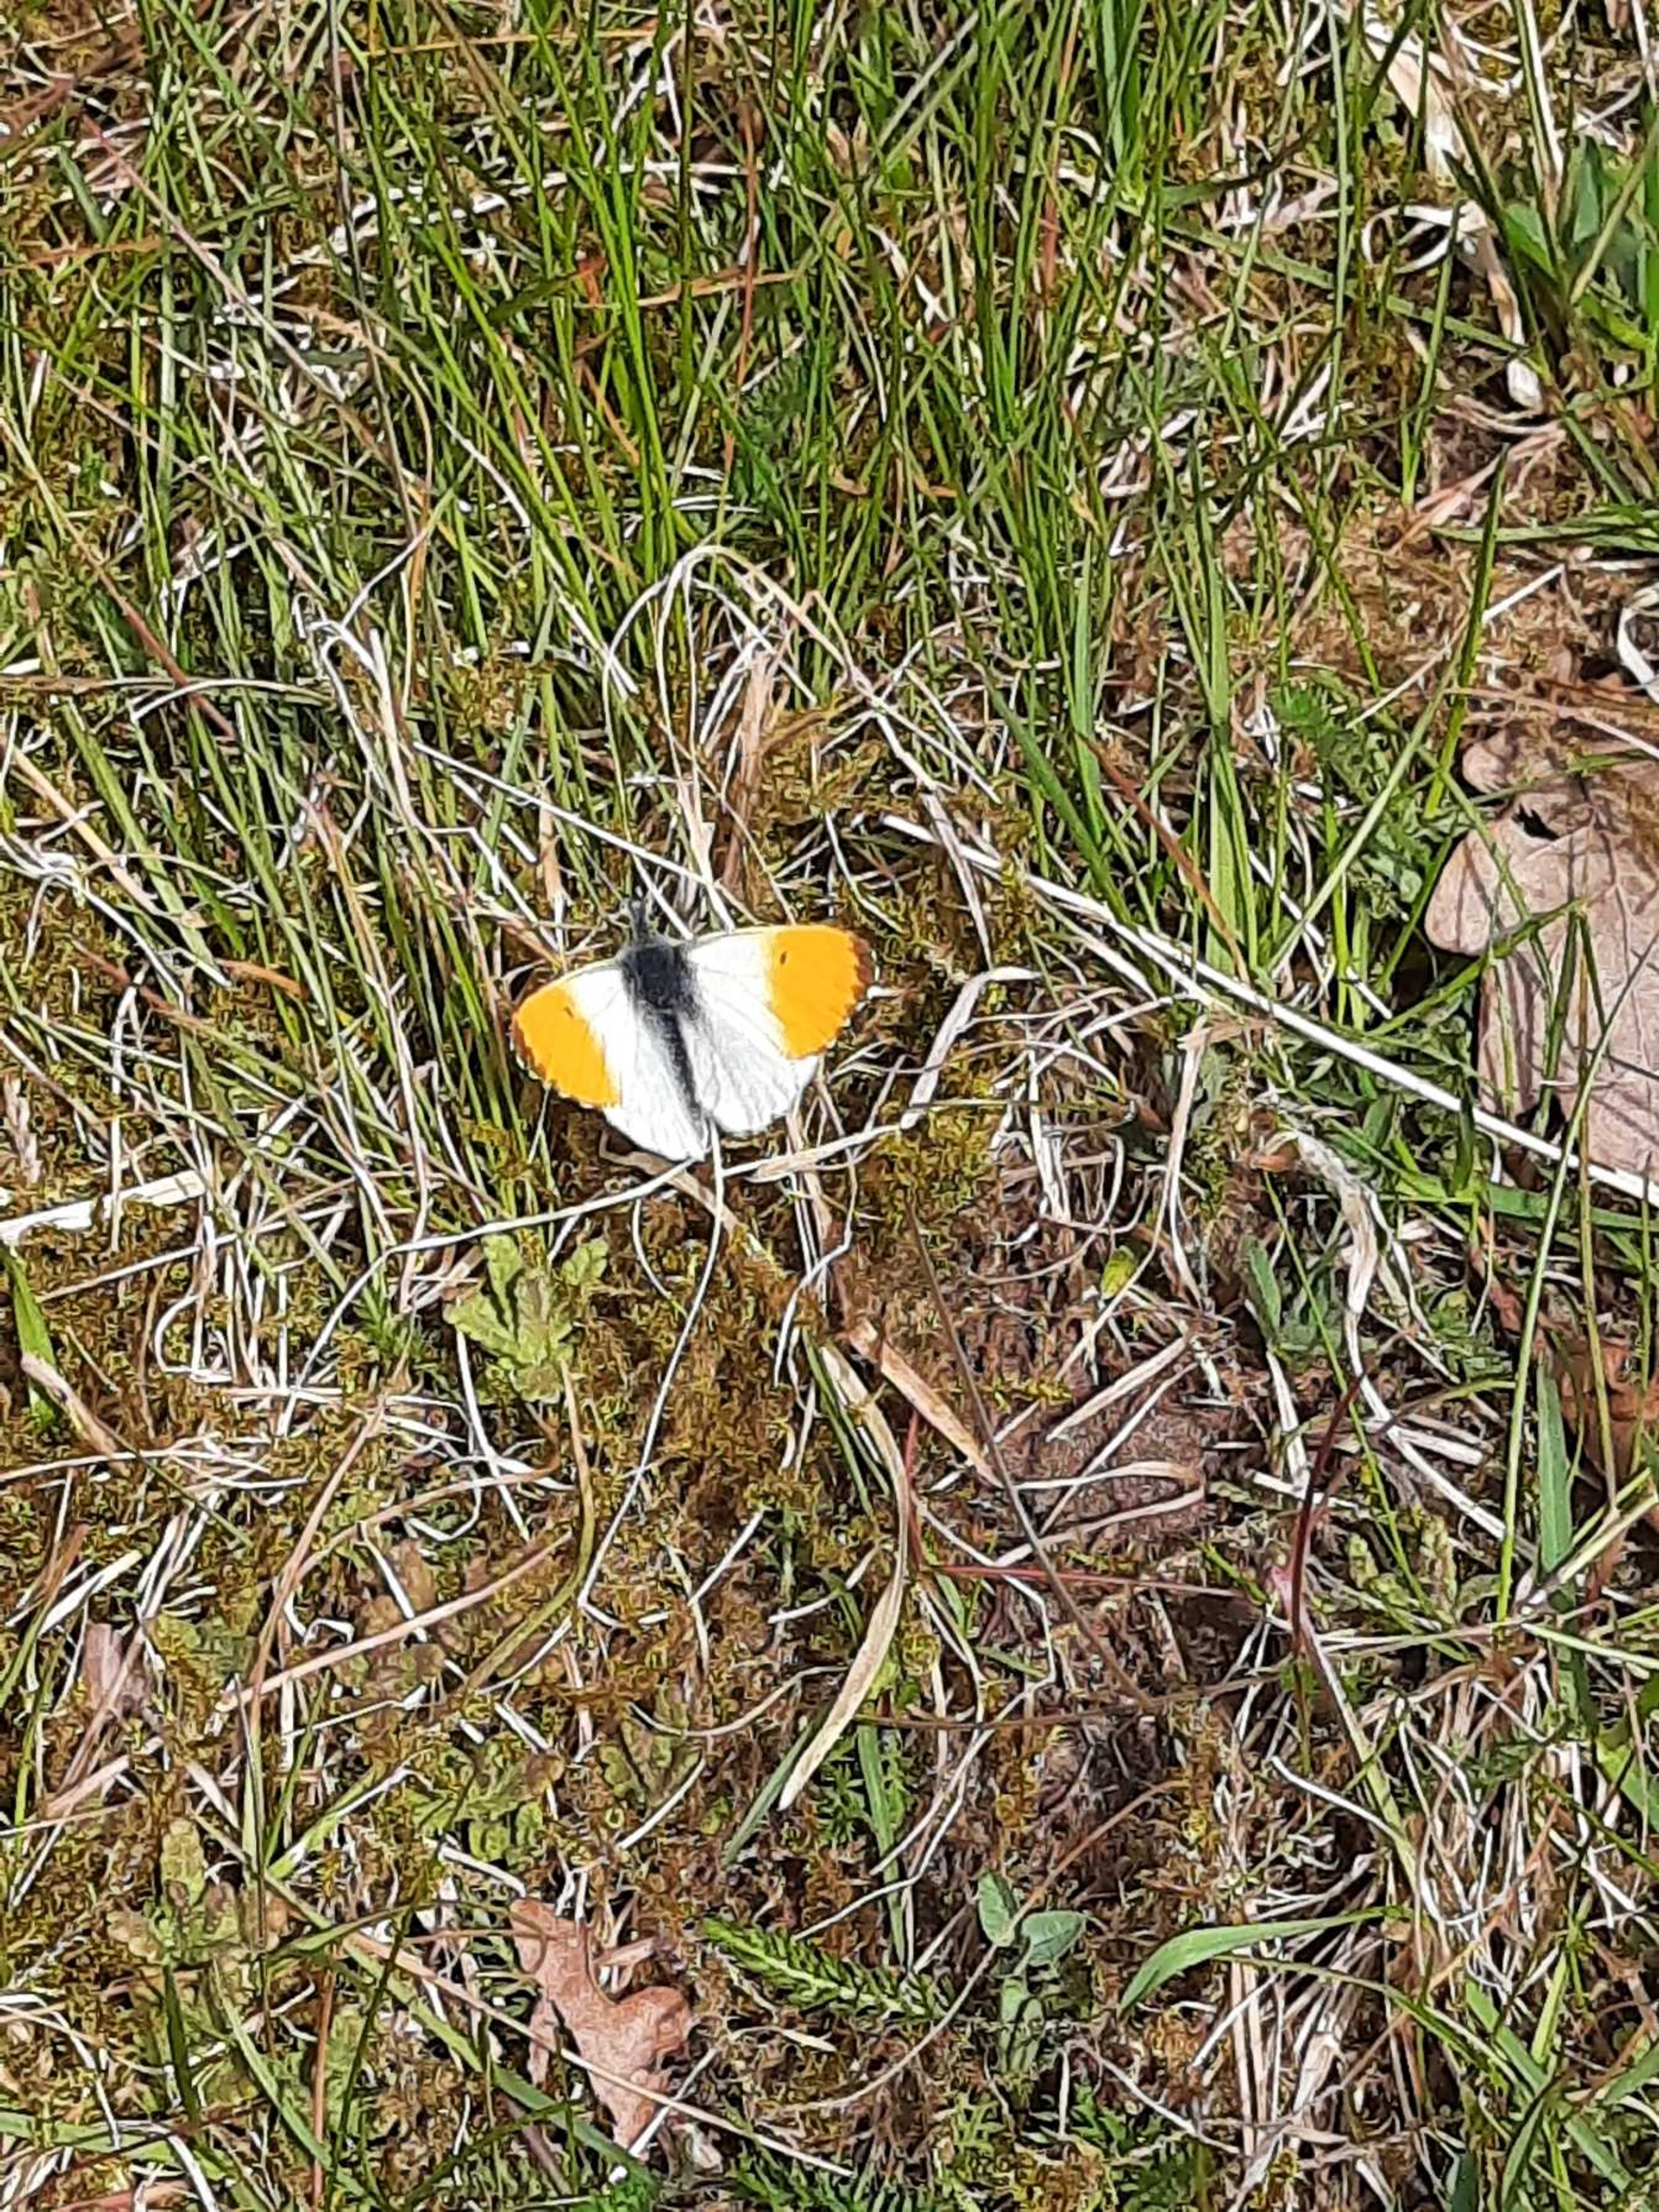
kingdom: Animalia
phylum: Arthropoda
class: Insecta
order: Lepidoptera
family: Pieridae
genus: Anthocharis
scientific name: Anthocharis cardamines
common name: Aurora
